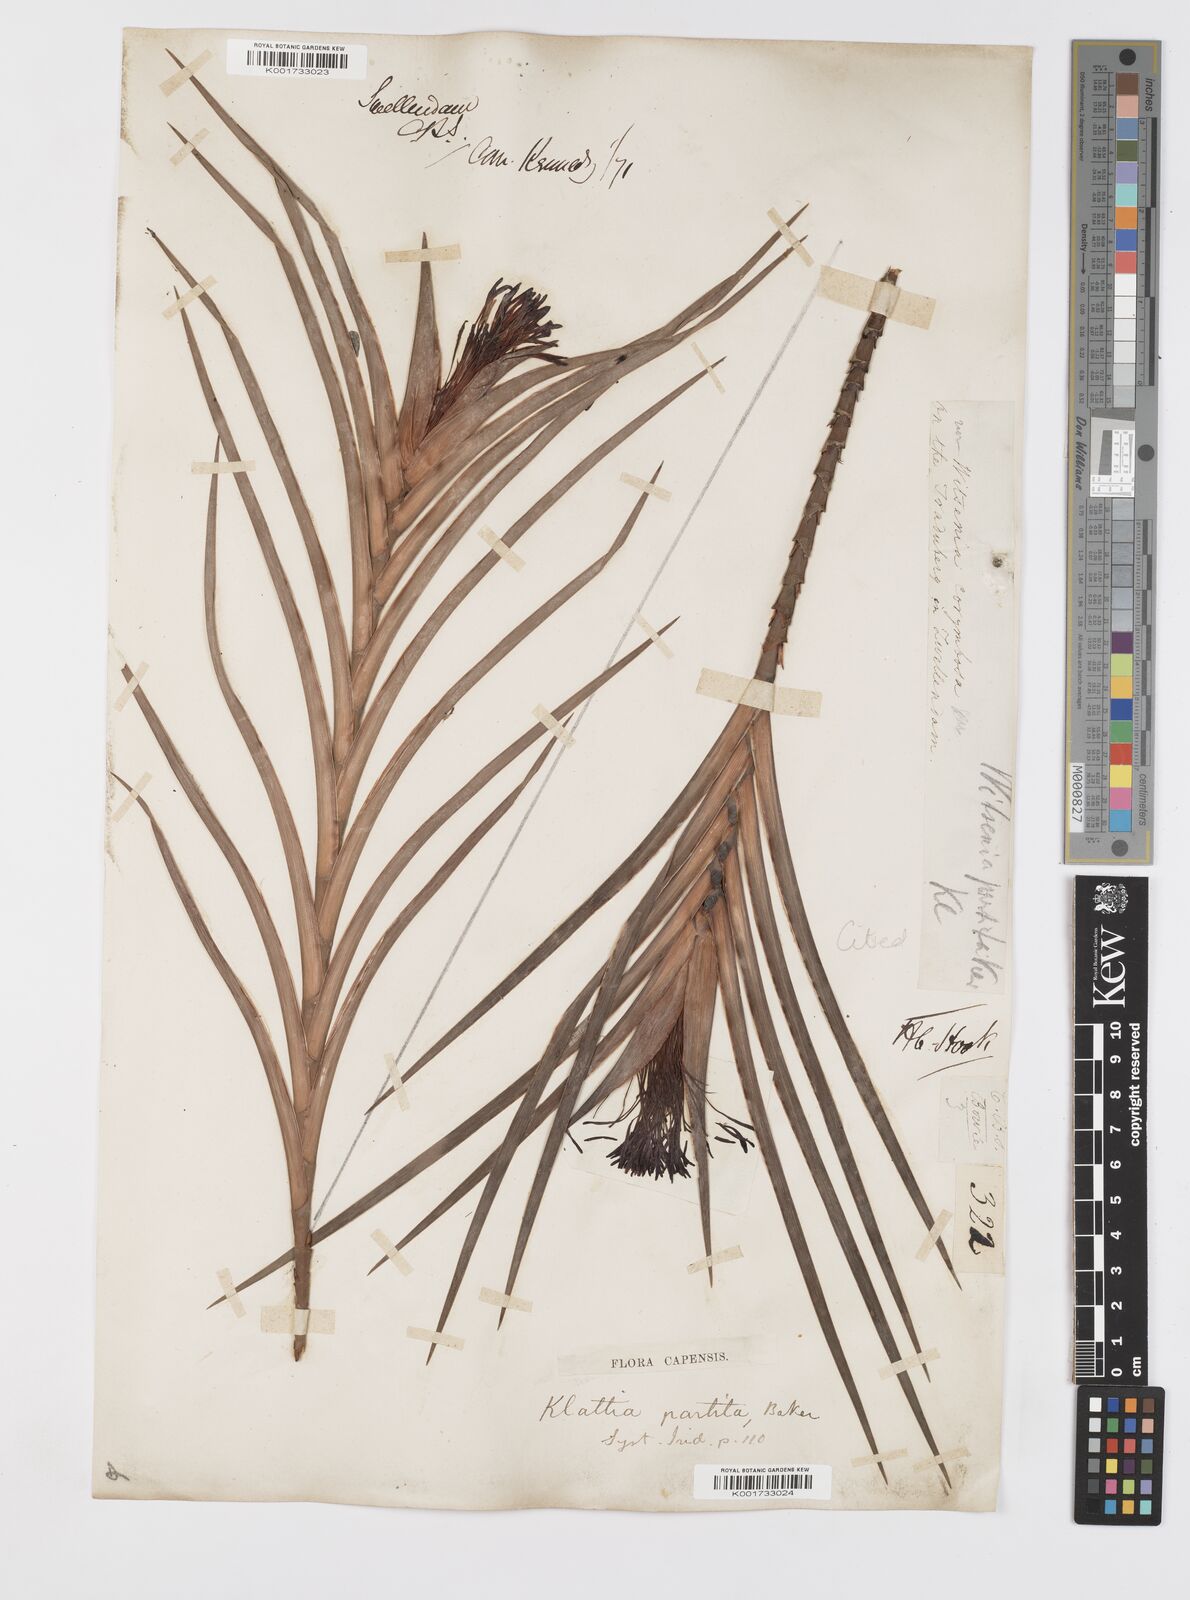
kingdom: Plantae
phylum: Tracheophyta
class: Liliopsida
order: Asparagales
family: Iridaceae
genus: Klattia
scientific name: Klattia partita
